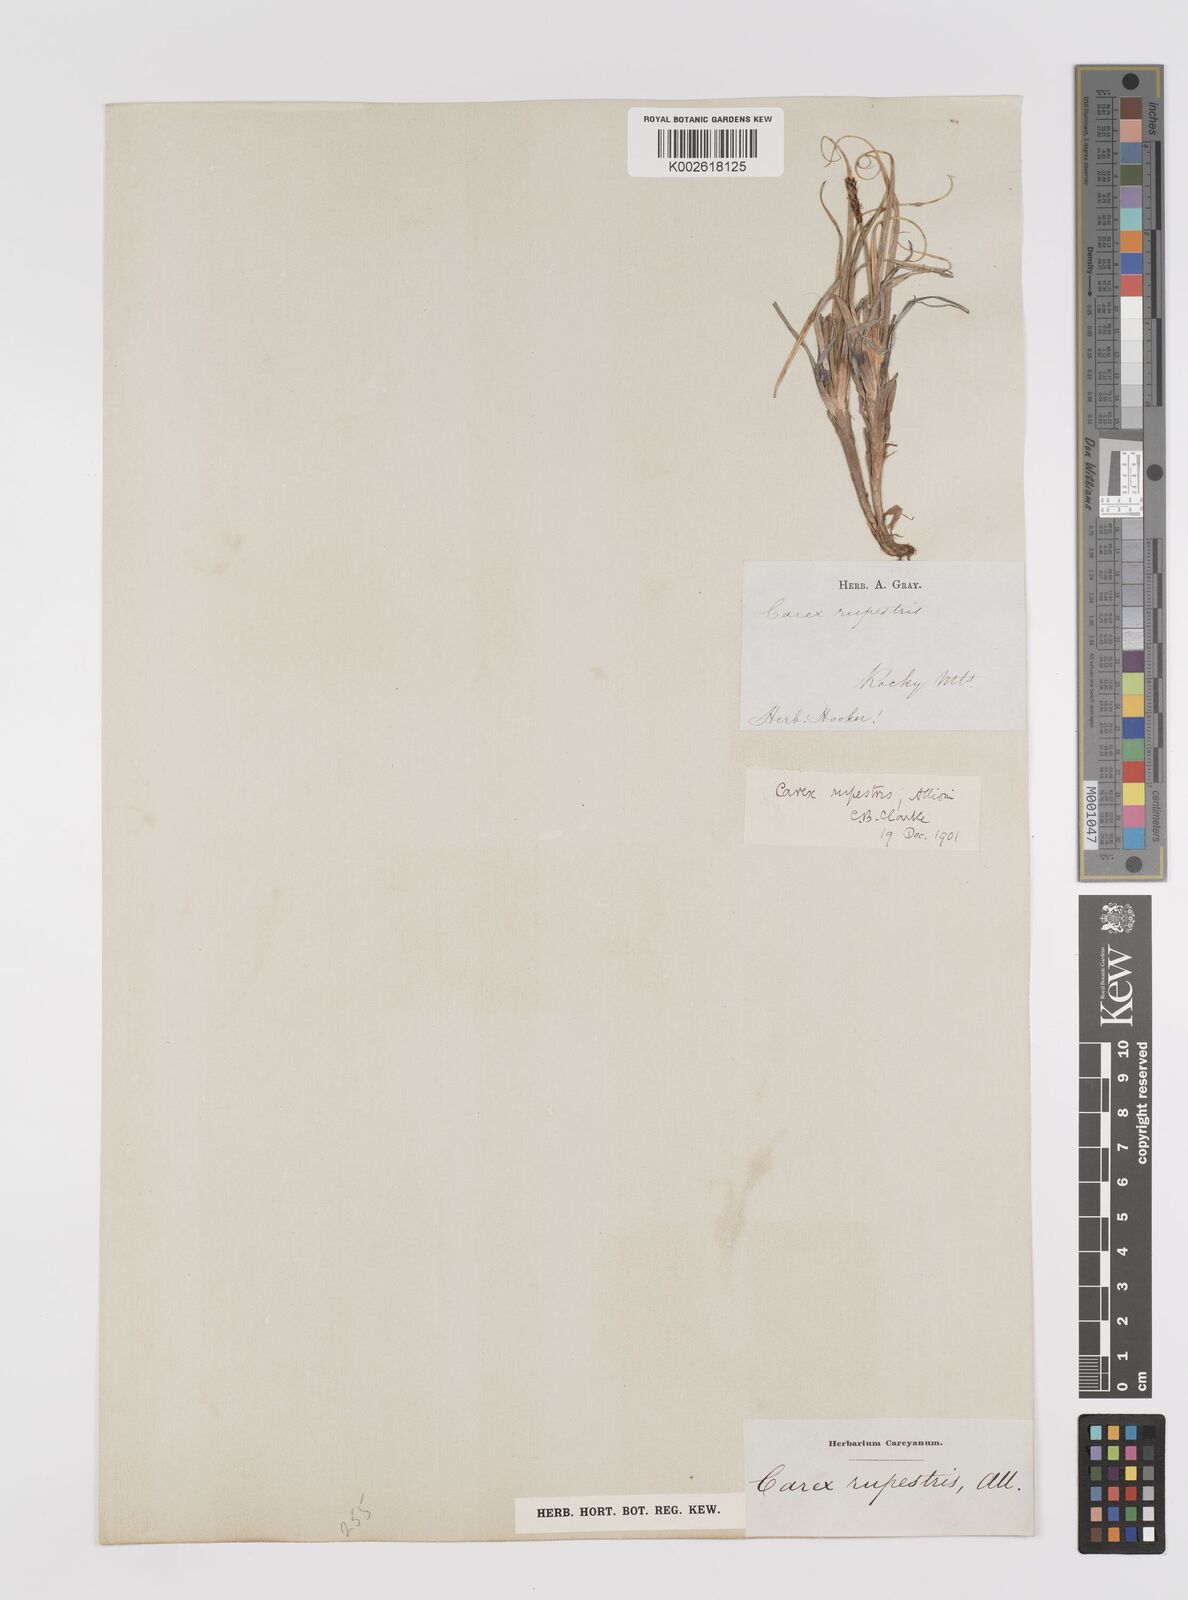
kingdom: Plantae
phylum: Tracheophyta
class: Liliopsida
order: Poales
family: Cyperaceae
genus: Carex
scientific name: Carex rupestris
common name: Rock sedge
